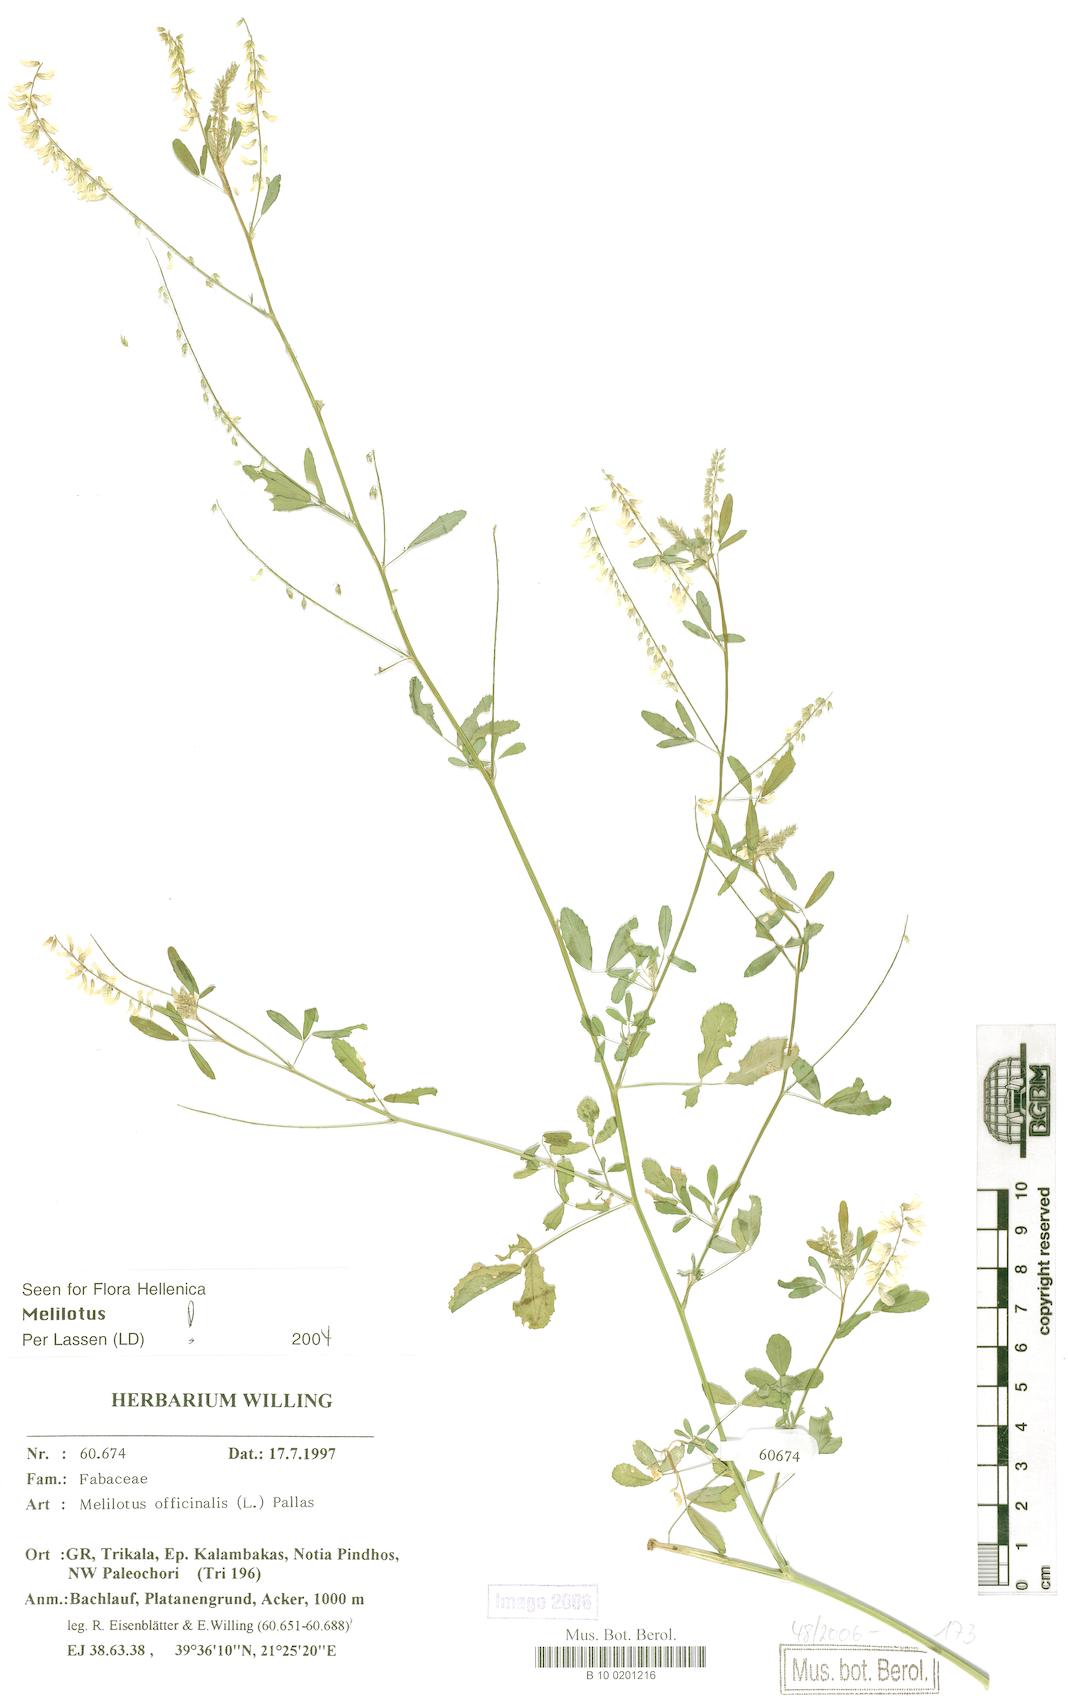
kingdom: Plantae
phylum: Tracheophyta
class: Magnoliopsida
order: Fabales
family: Fabaceae
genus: Melilotus
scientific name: Melilotus officinalis
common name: Sweetclover
